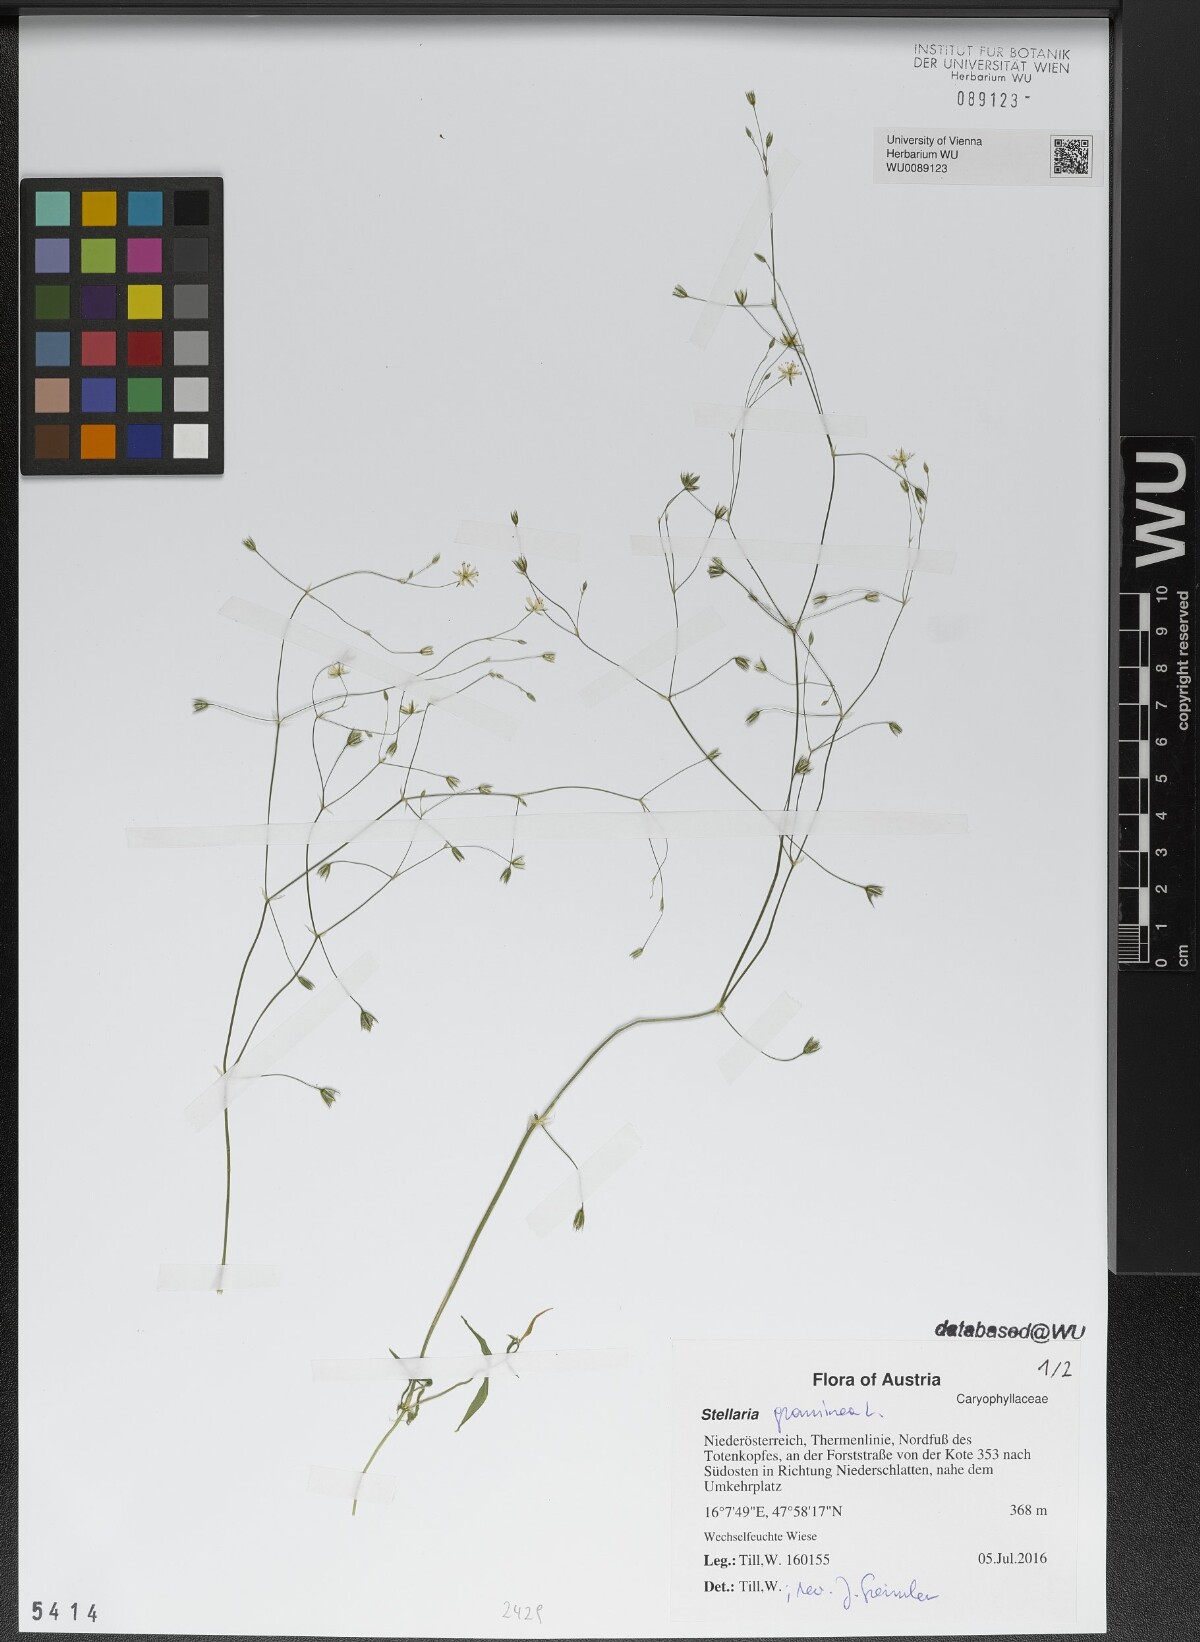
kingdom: Plantae
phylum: Tracheophyta
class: Magnoliopsida
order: Caryophyllales
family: Caryophyllaceae
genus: Stellaria
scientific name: Stellaria graminea
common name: Grass-like starwort
